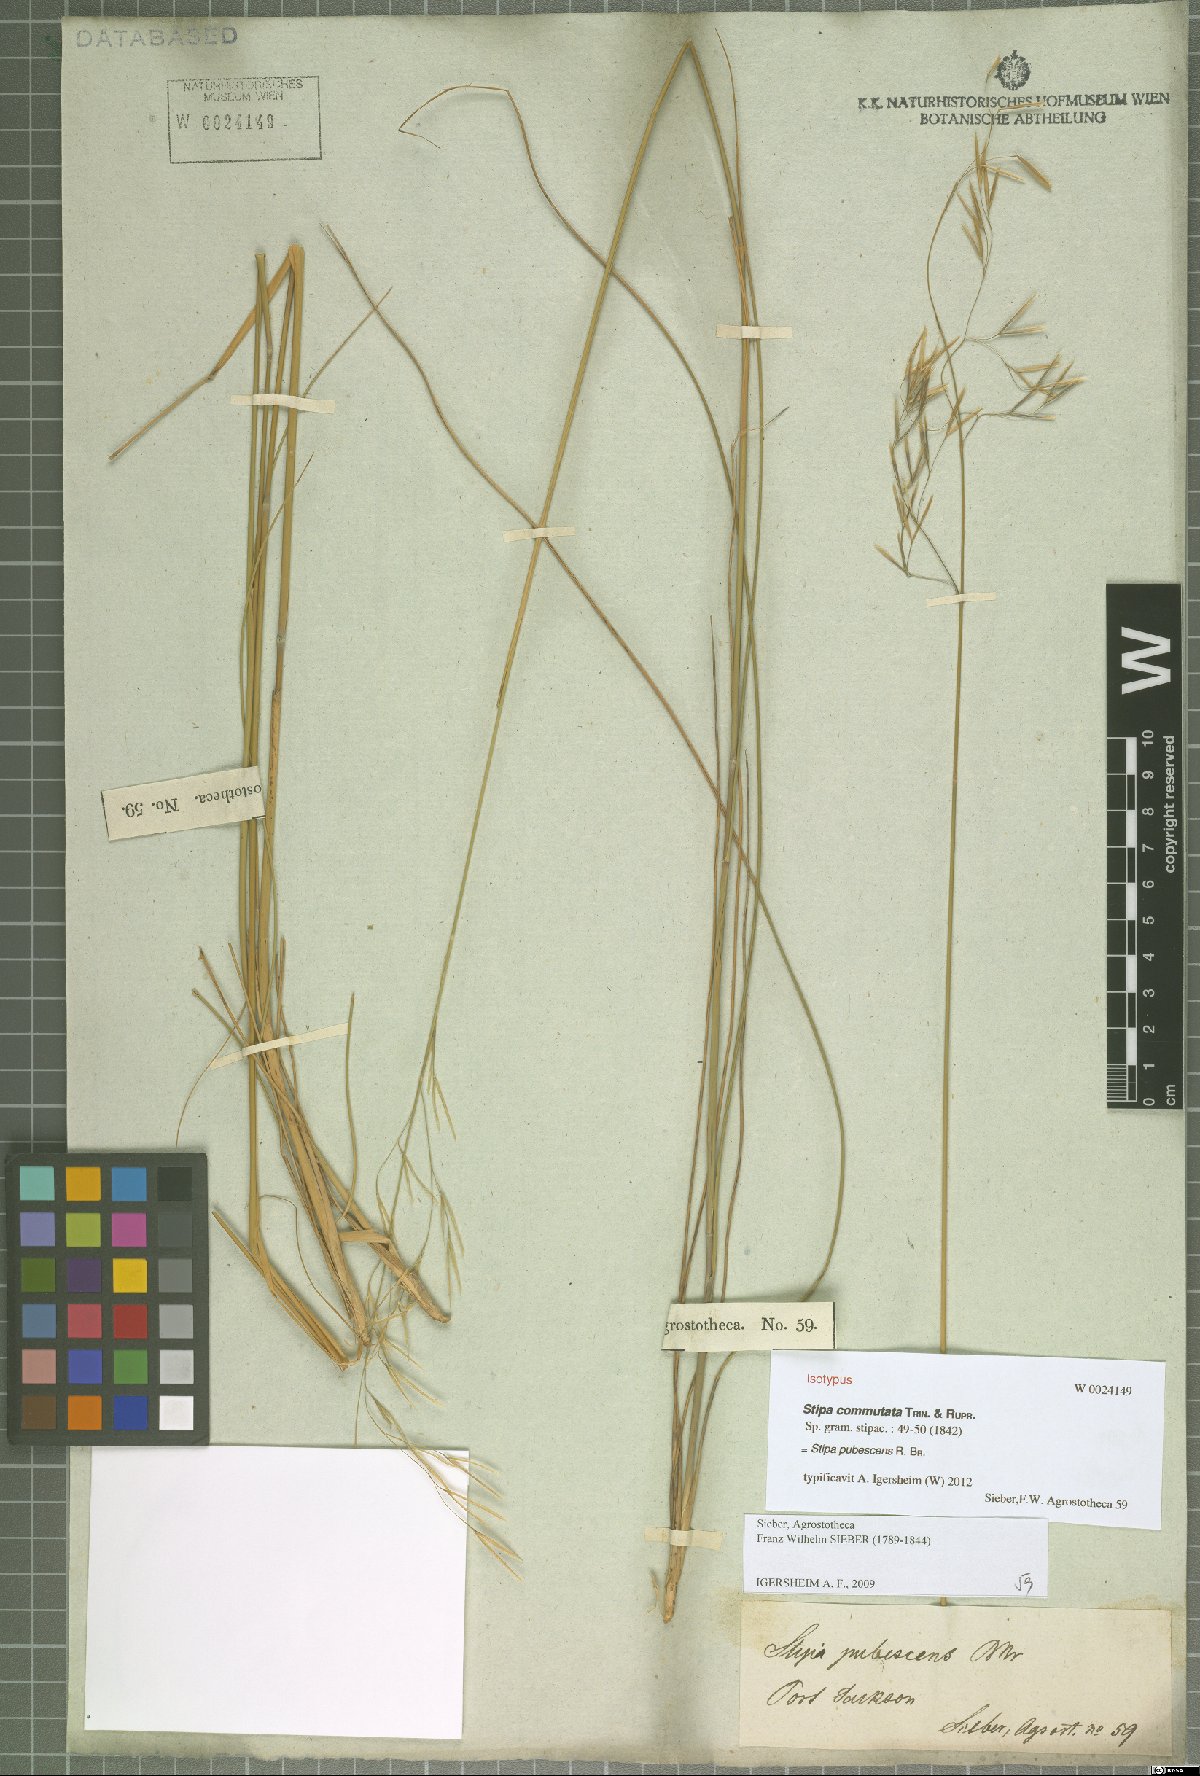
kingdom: Plantae
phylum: Tracheophyta
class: Liliopsida
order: Poales
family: Poaceae
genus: Austrostipa
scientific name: Austrostipa pubescens
